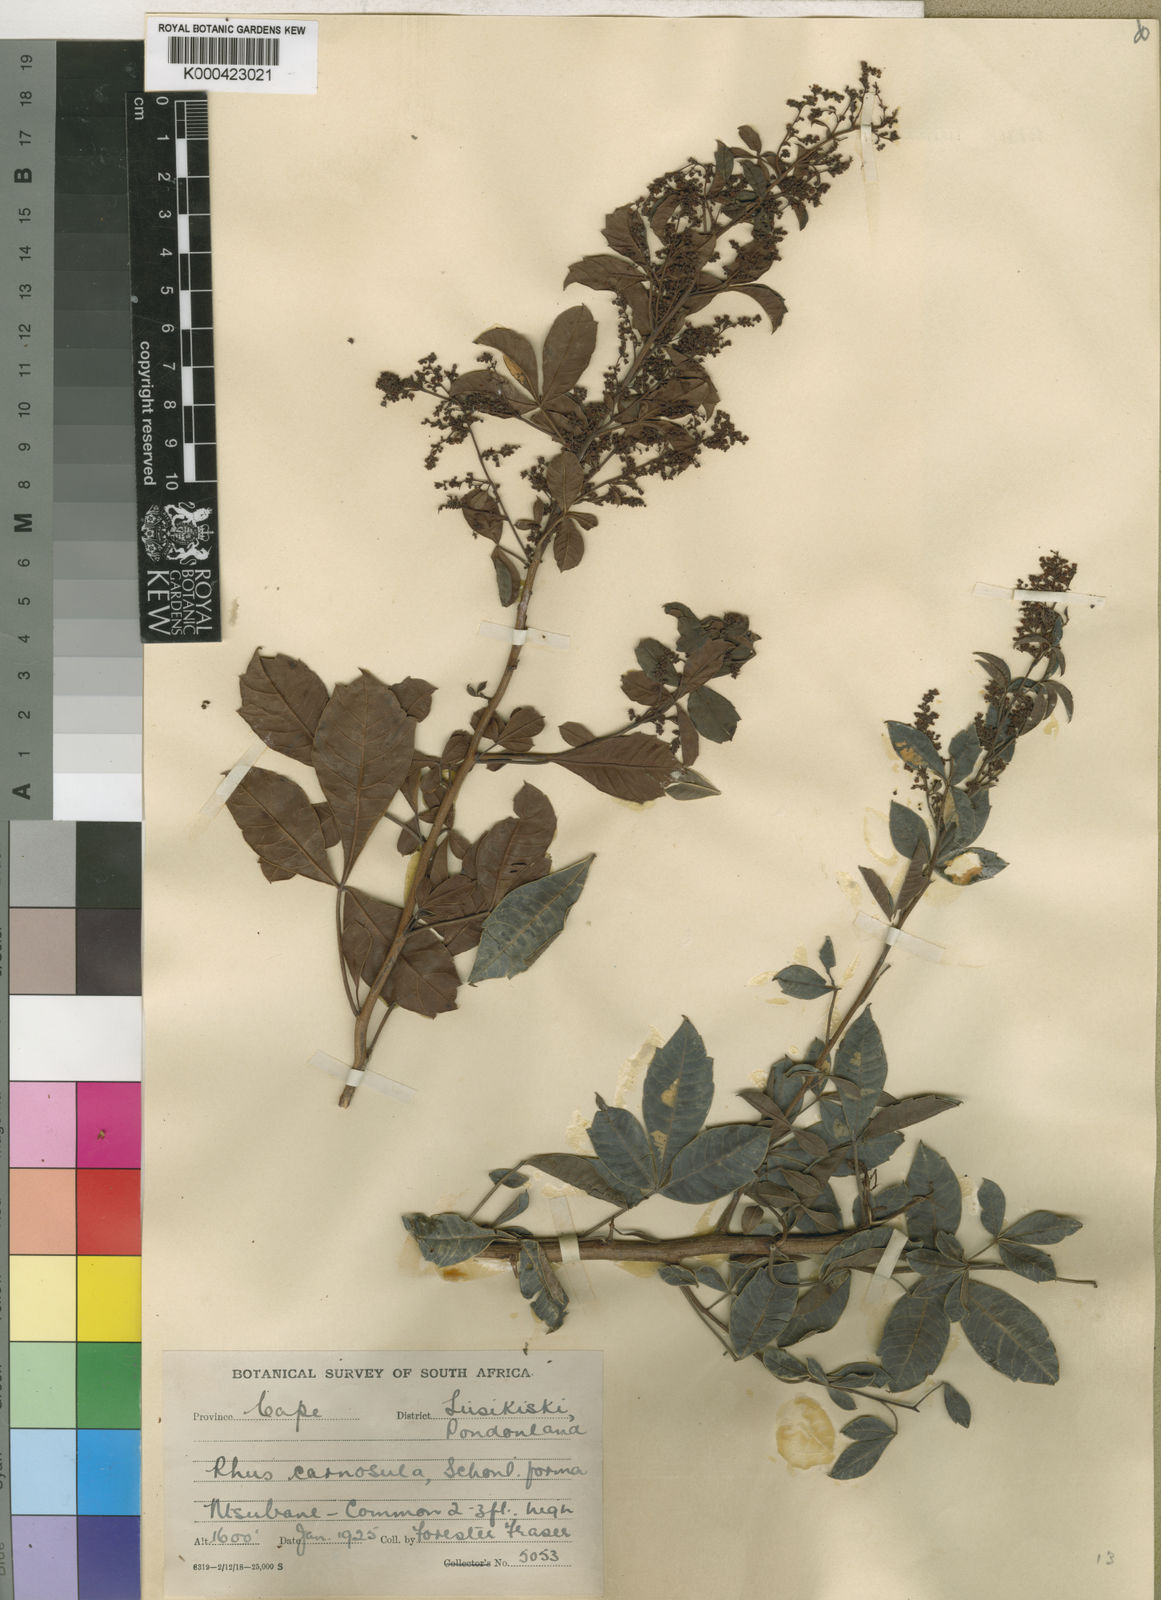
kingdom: Plantae
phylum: Tracheophyta
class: Magnoliopsida
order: Sapindales
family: Anacardiaceae
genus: Rhus
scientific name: Rhus
